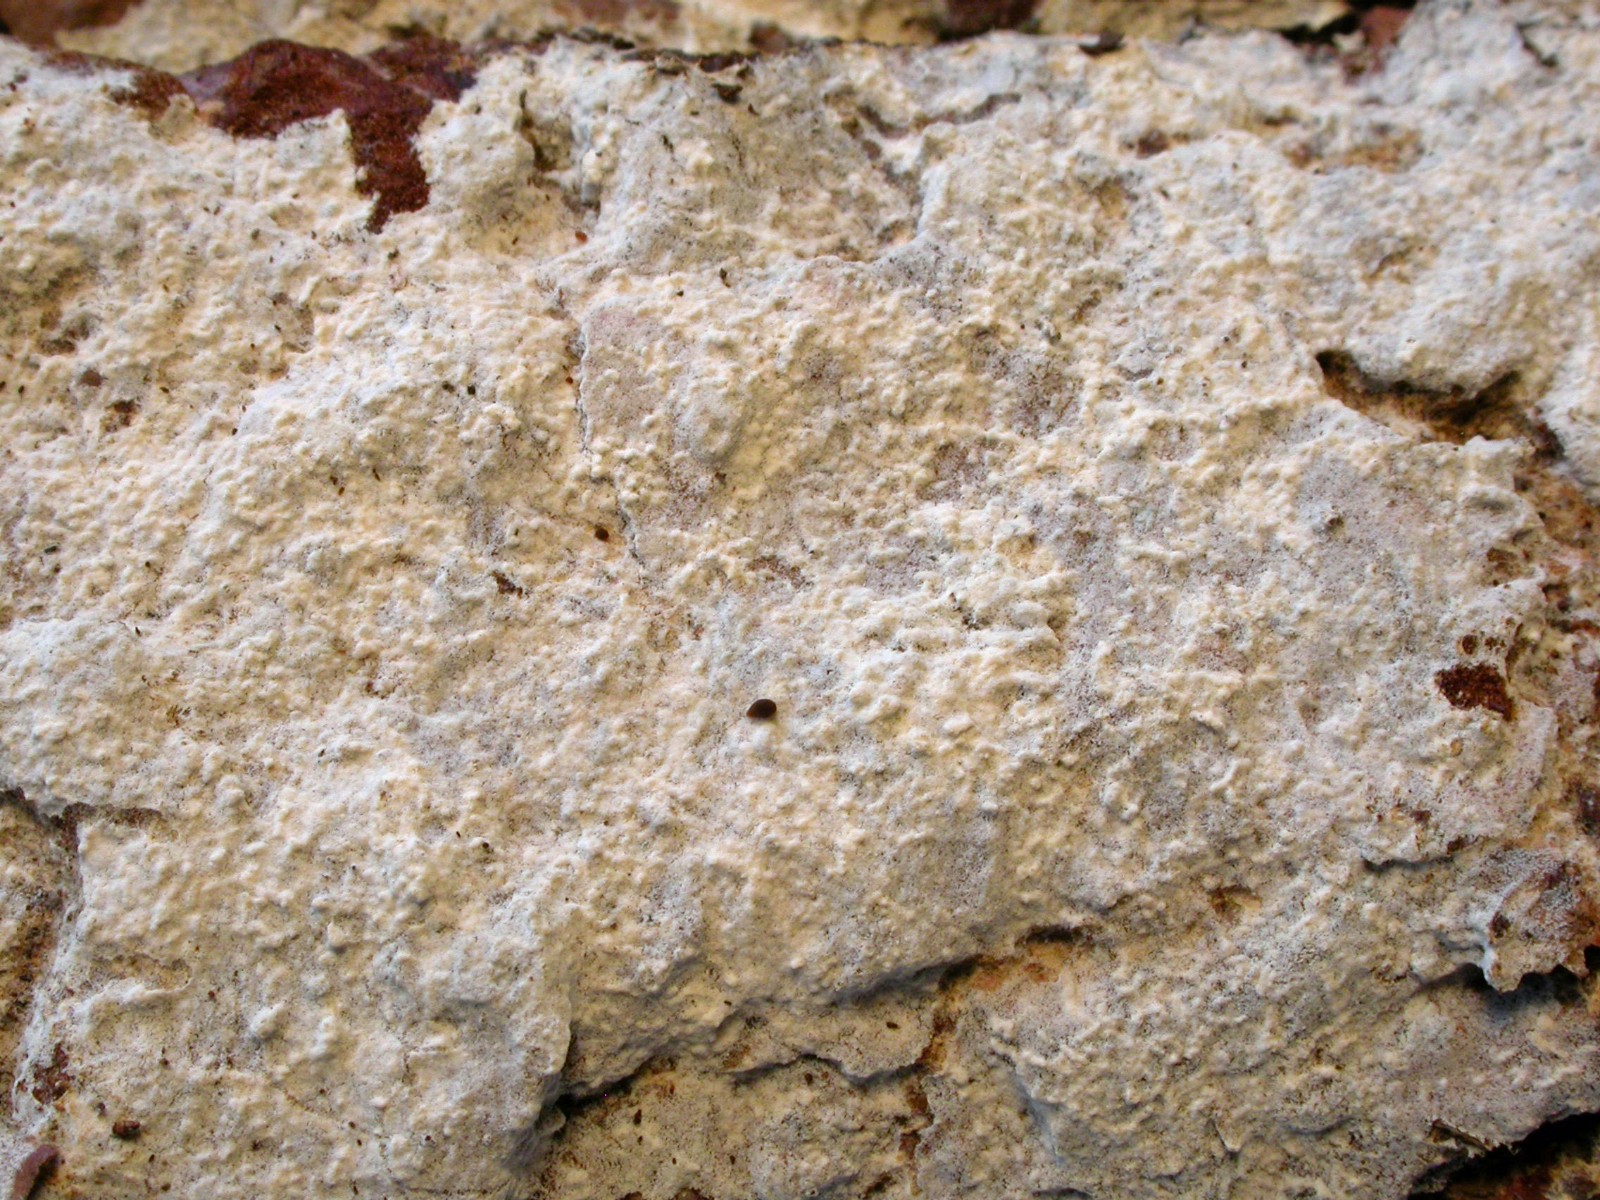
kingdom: Fungi
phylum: Basidiomycota
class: Agaricomycetes
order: Cantharellales
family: Botryobasidiaceae
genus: Botryobasidium
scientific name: Botryobasidium subcoronatum
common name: almindelig spindhinde
